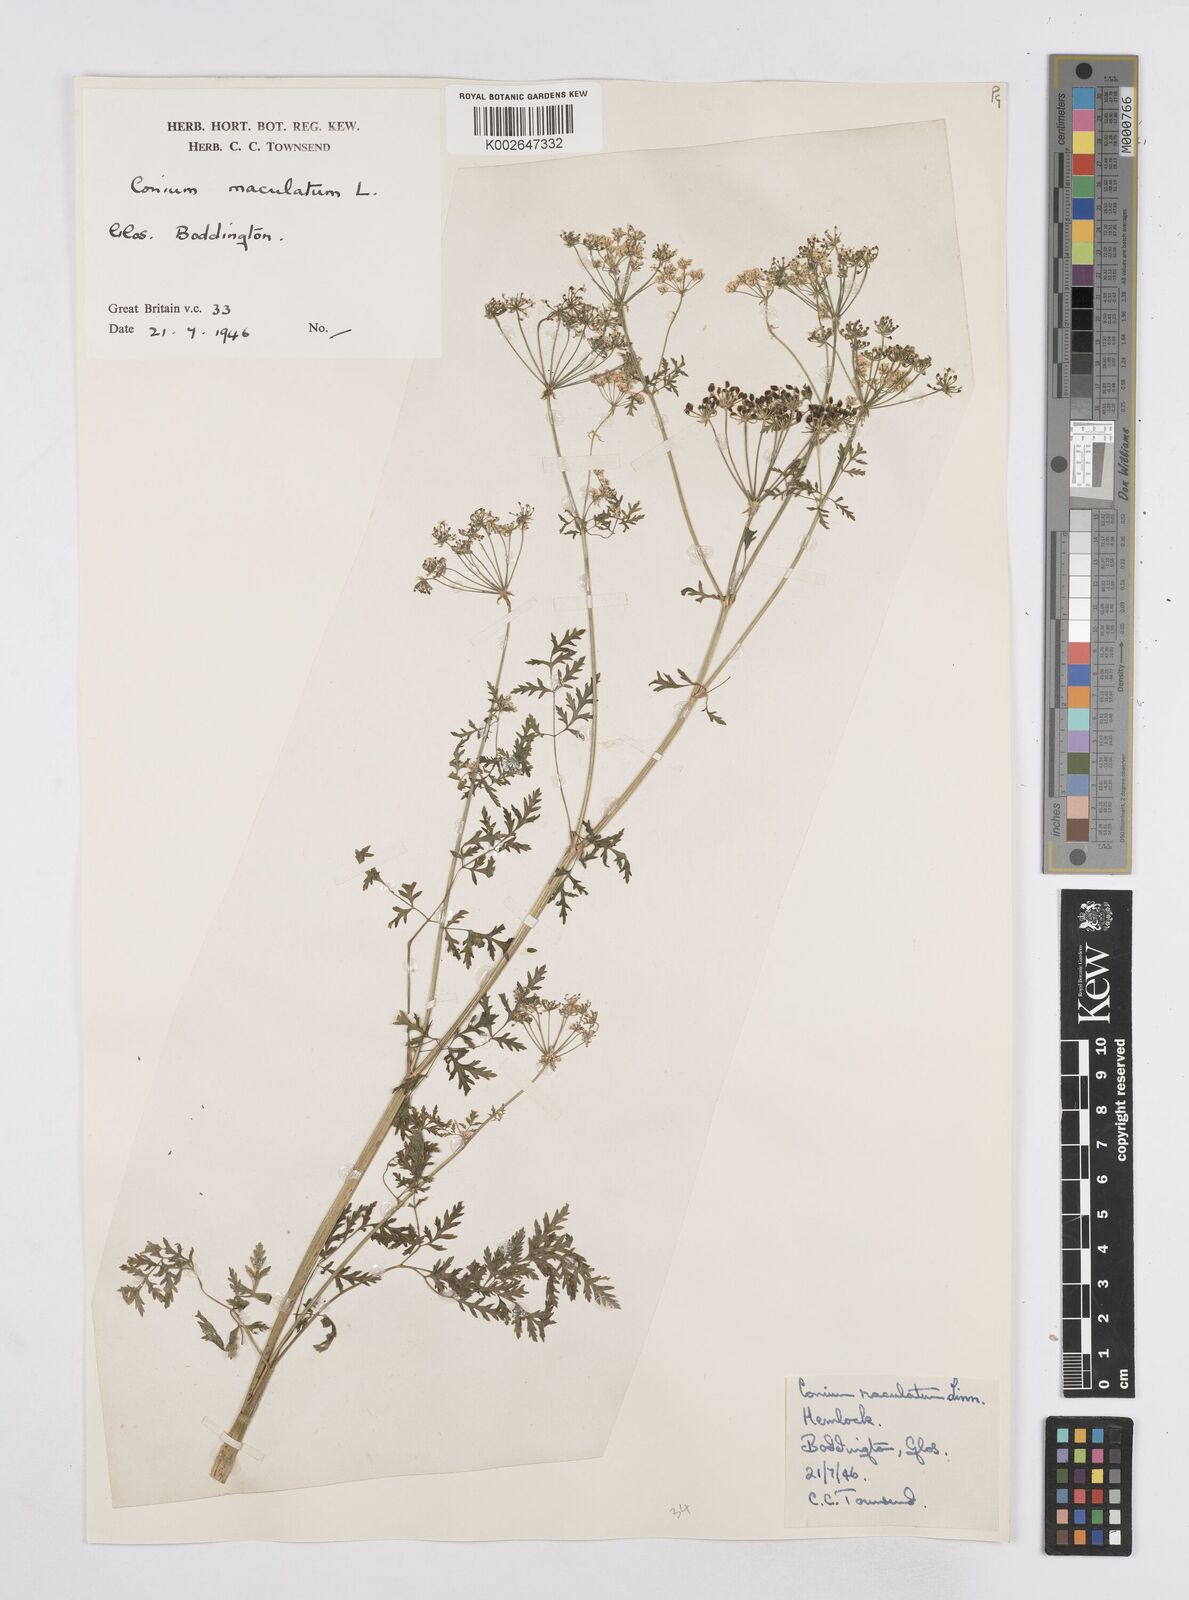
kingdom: Plantae
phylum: Tracheophyta
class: Magnoliopsida
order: Apiales
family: Apiaceae
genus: Conium
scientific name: Conium maculatum
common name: Hemlock
